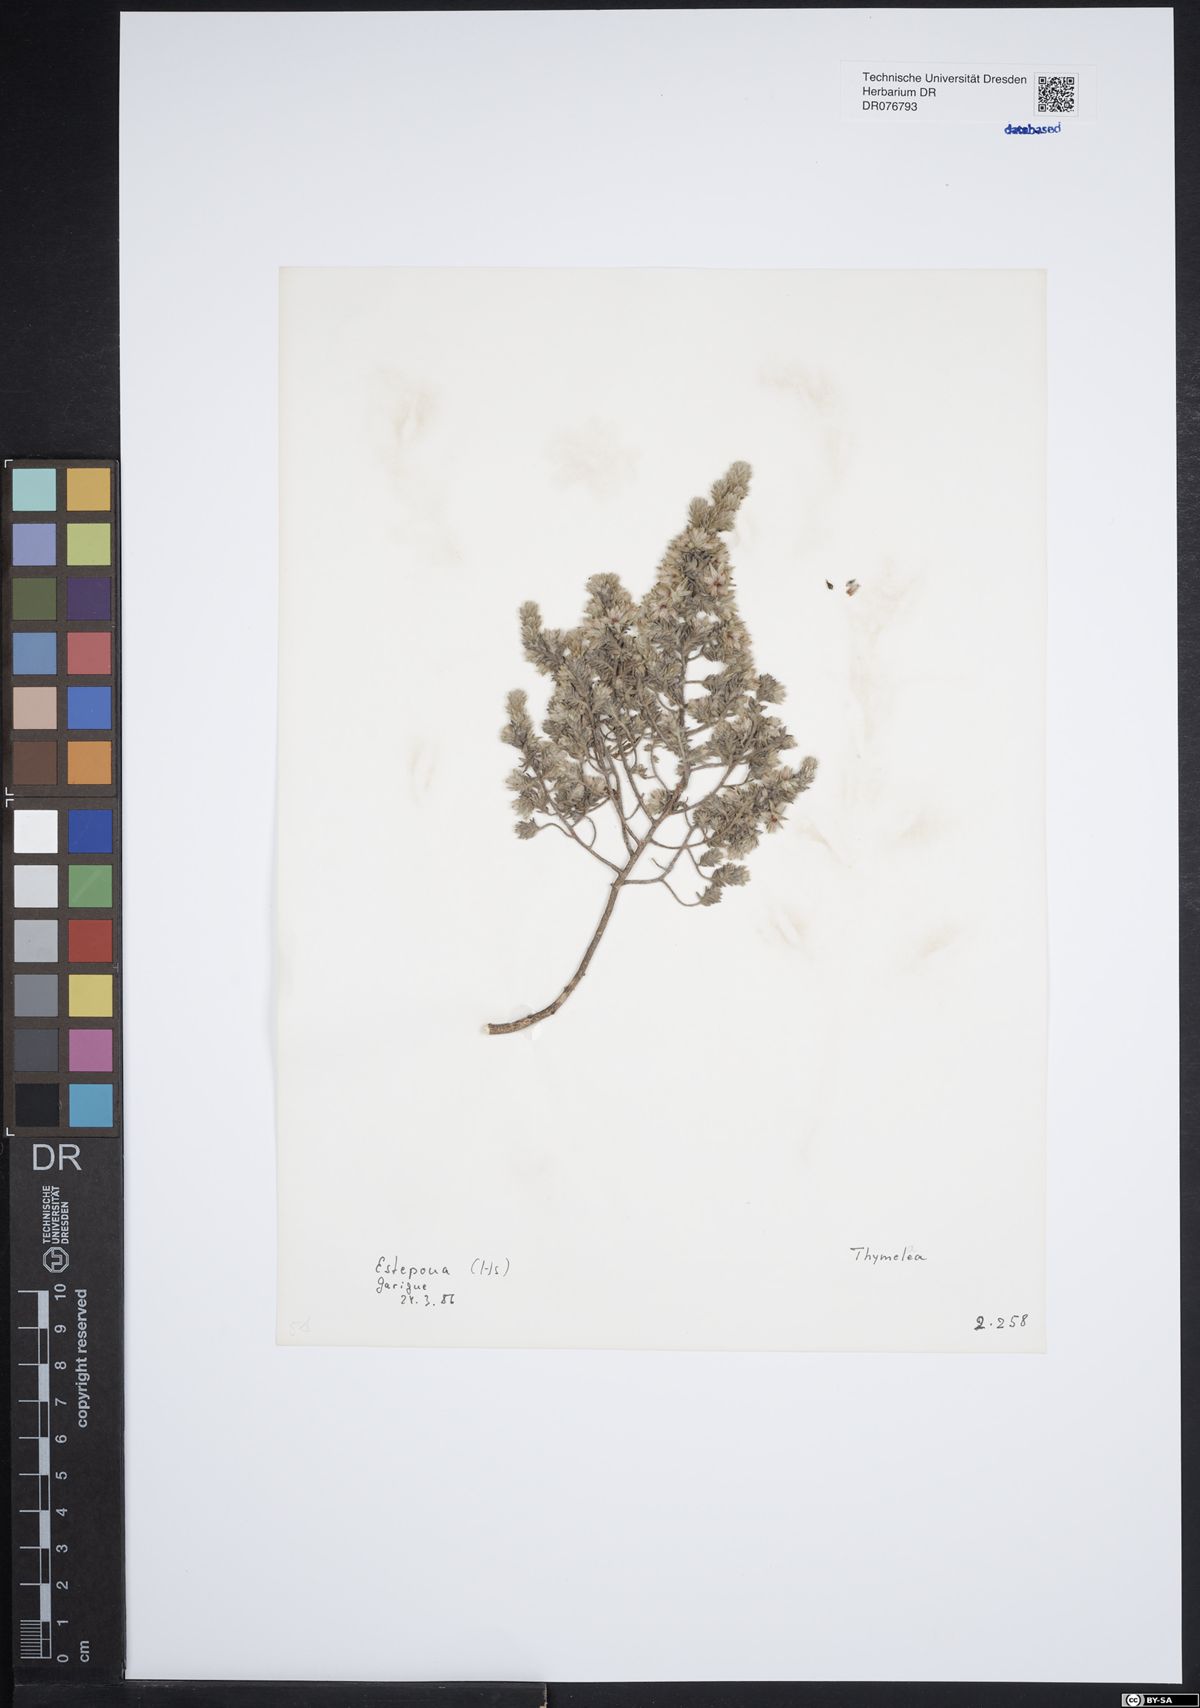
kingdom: Plantae
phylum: Tracheophyta
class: Magnoliopsida
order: Malvales
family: Thymelaeaceae
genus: Thymelaea
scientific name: Thymelaea
